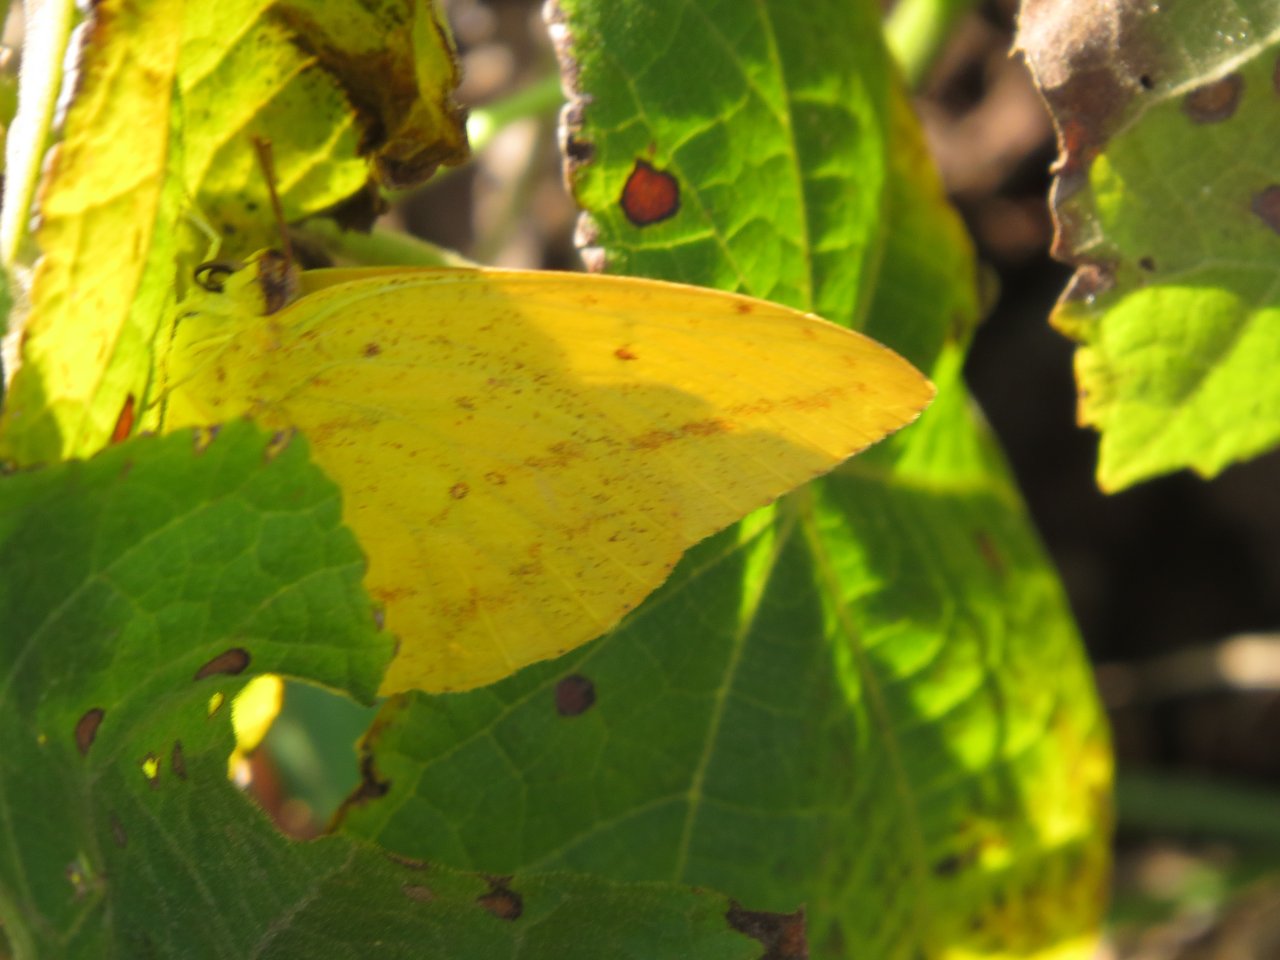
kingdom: Animalia
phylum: Arthropoda
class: Insecta
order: Lepidoptera
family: Pieridae
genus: Phoebis
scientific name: Phoebis agarithe
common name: Large Orange Sulphur
